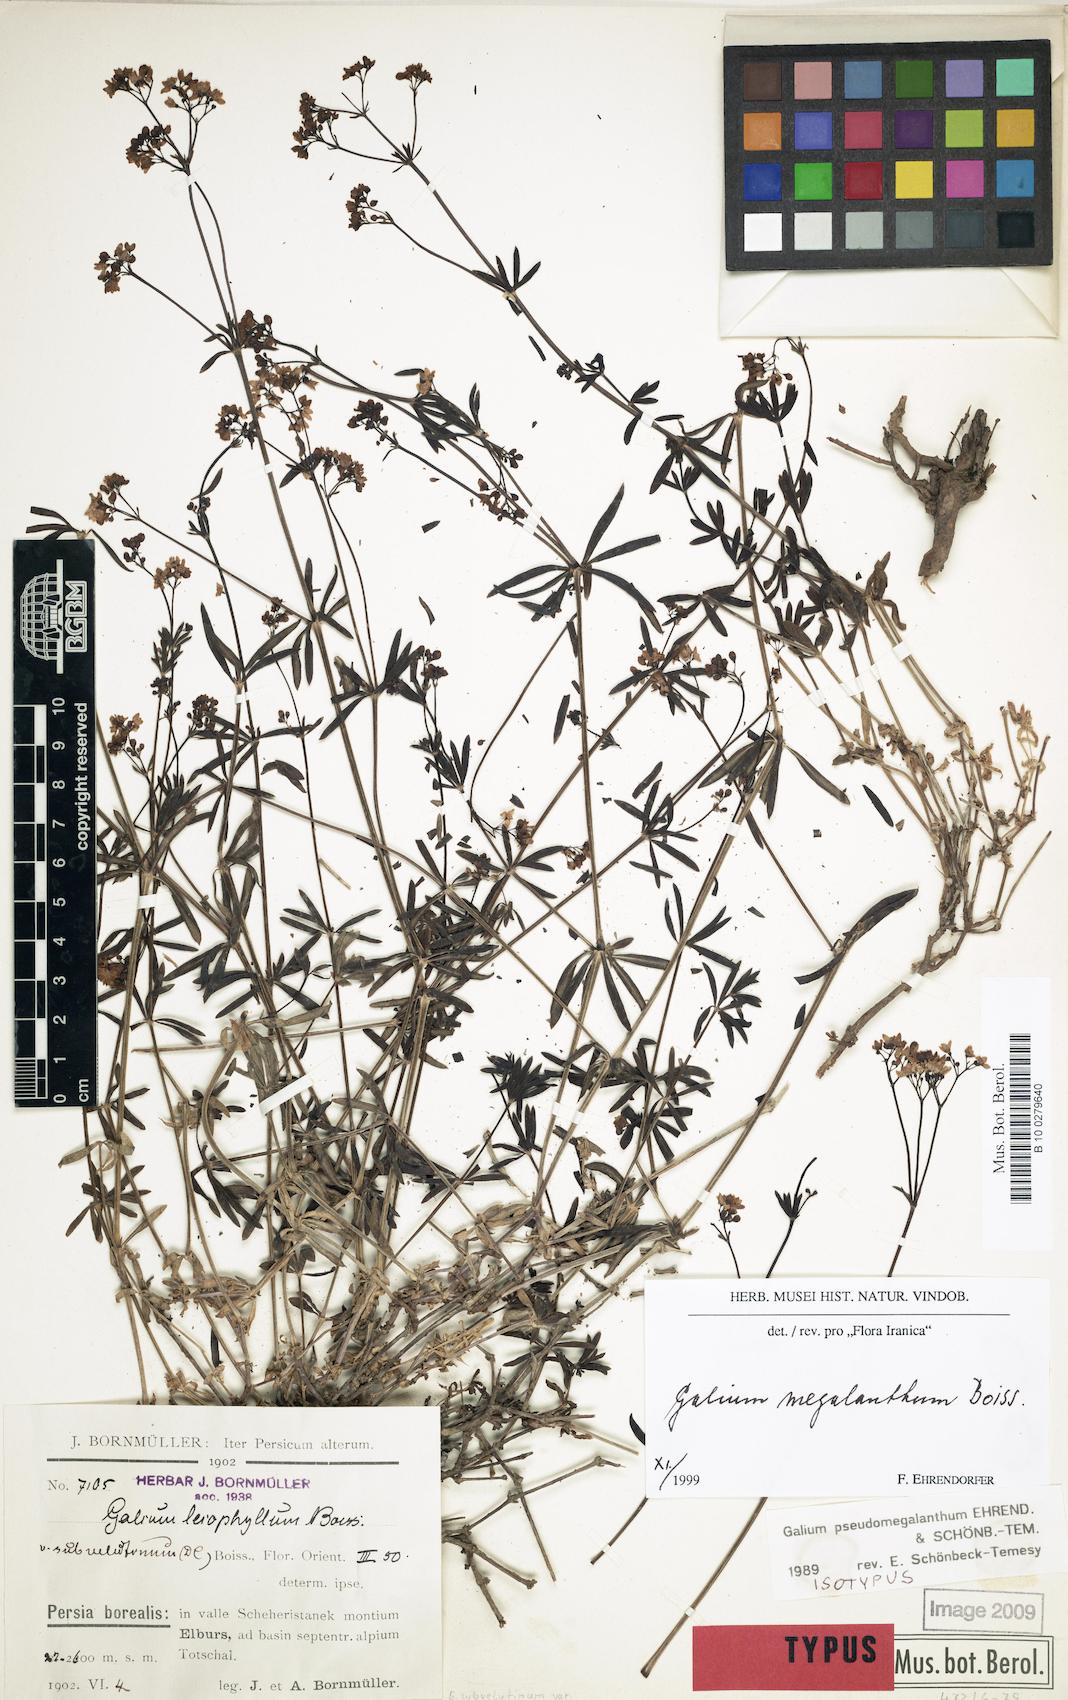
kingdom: Plantae
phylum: Tracheophyta
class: Magnoliopsida
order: Gentianales
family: Rubiaceae
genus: Galium
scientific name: Galium megalanthum
